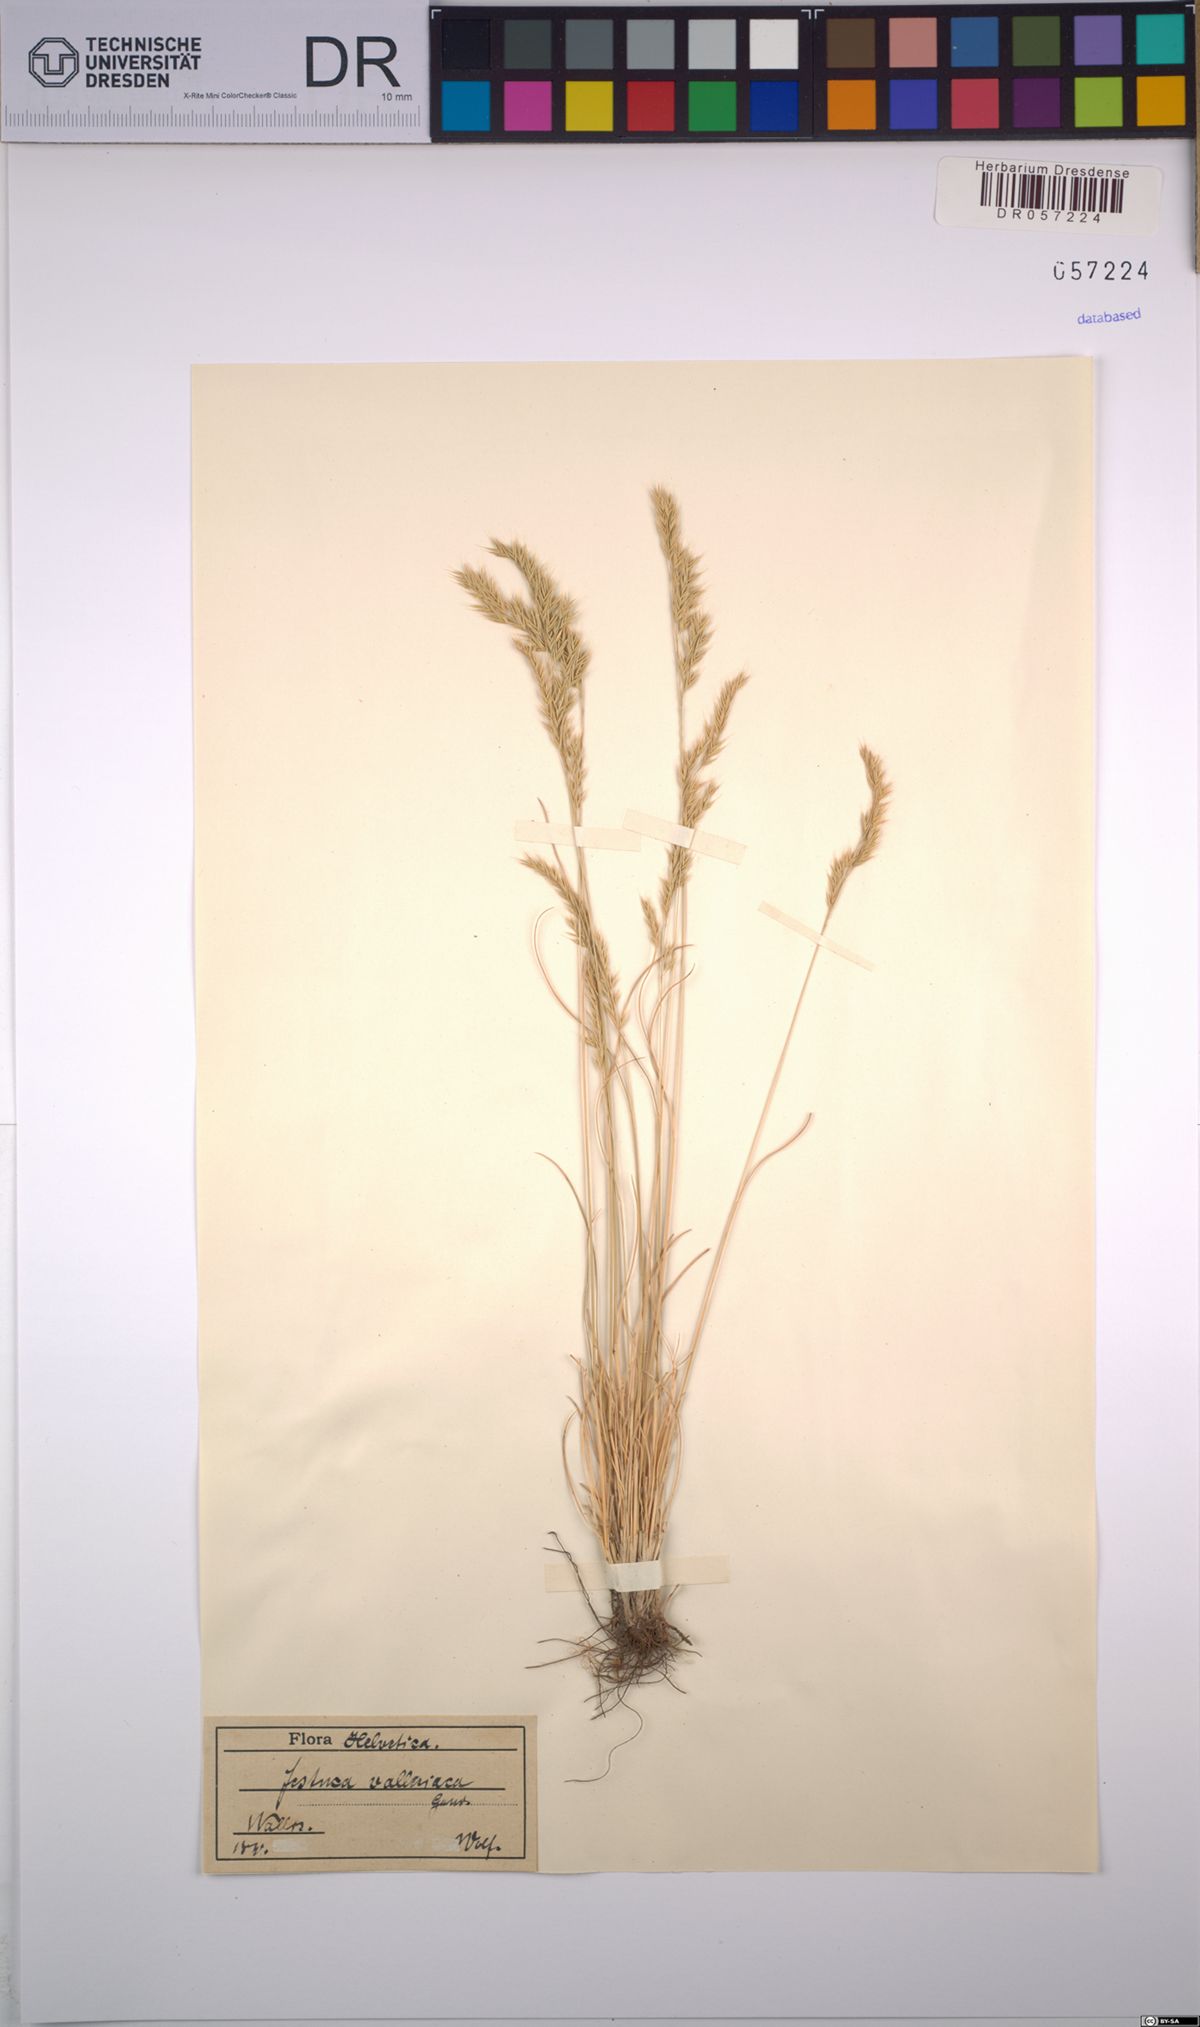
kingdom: Plantae
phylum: Tracheophyta
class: Liliopsida
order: Poales
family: Poaceae
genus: Festuca
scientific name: Festuca valesiaca
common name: Volga fescue
